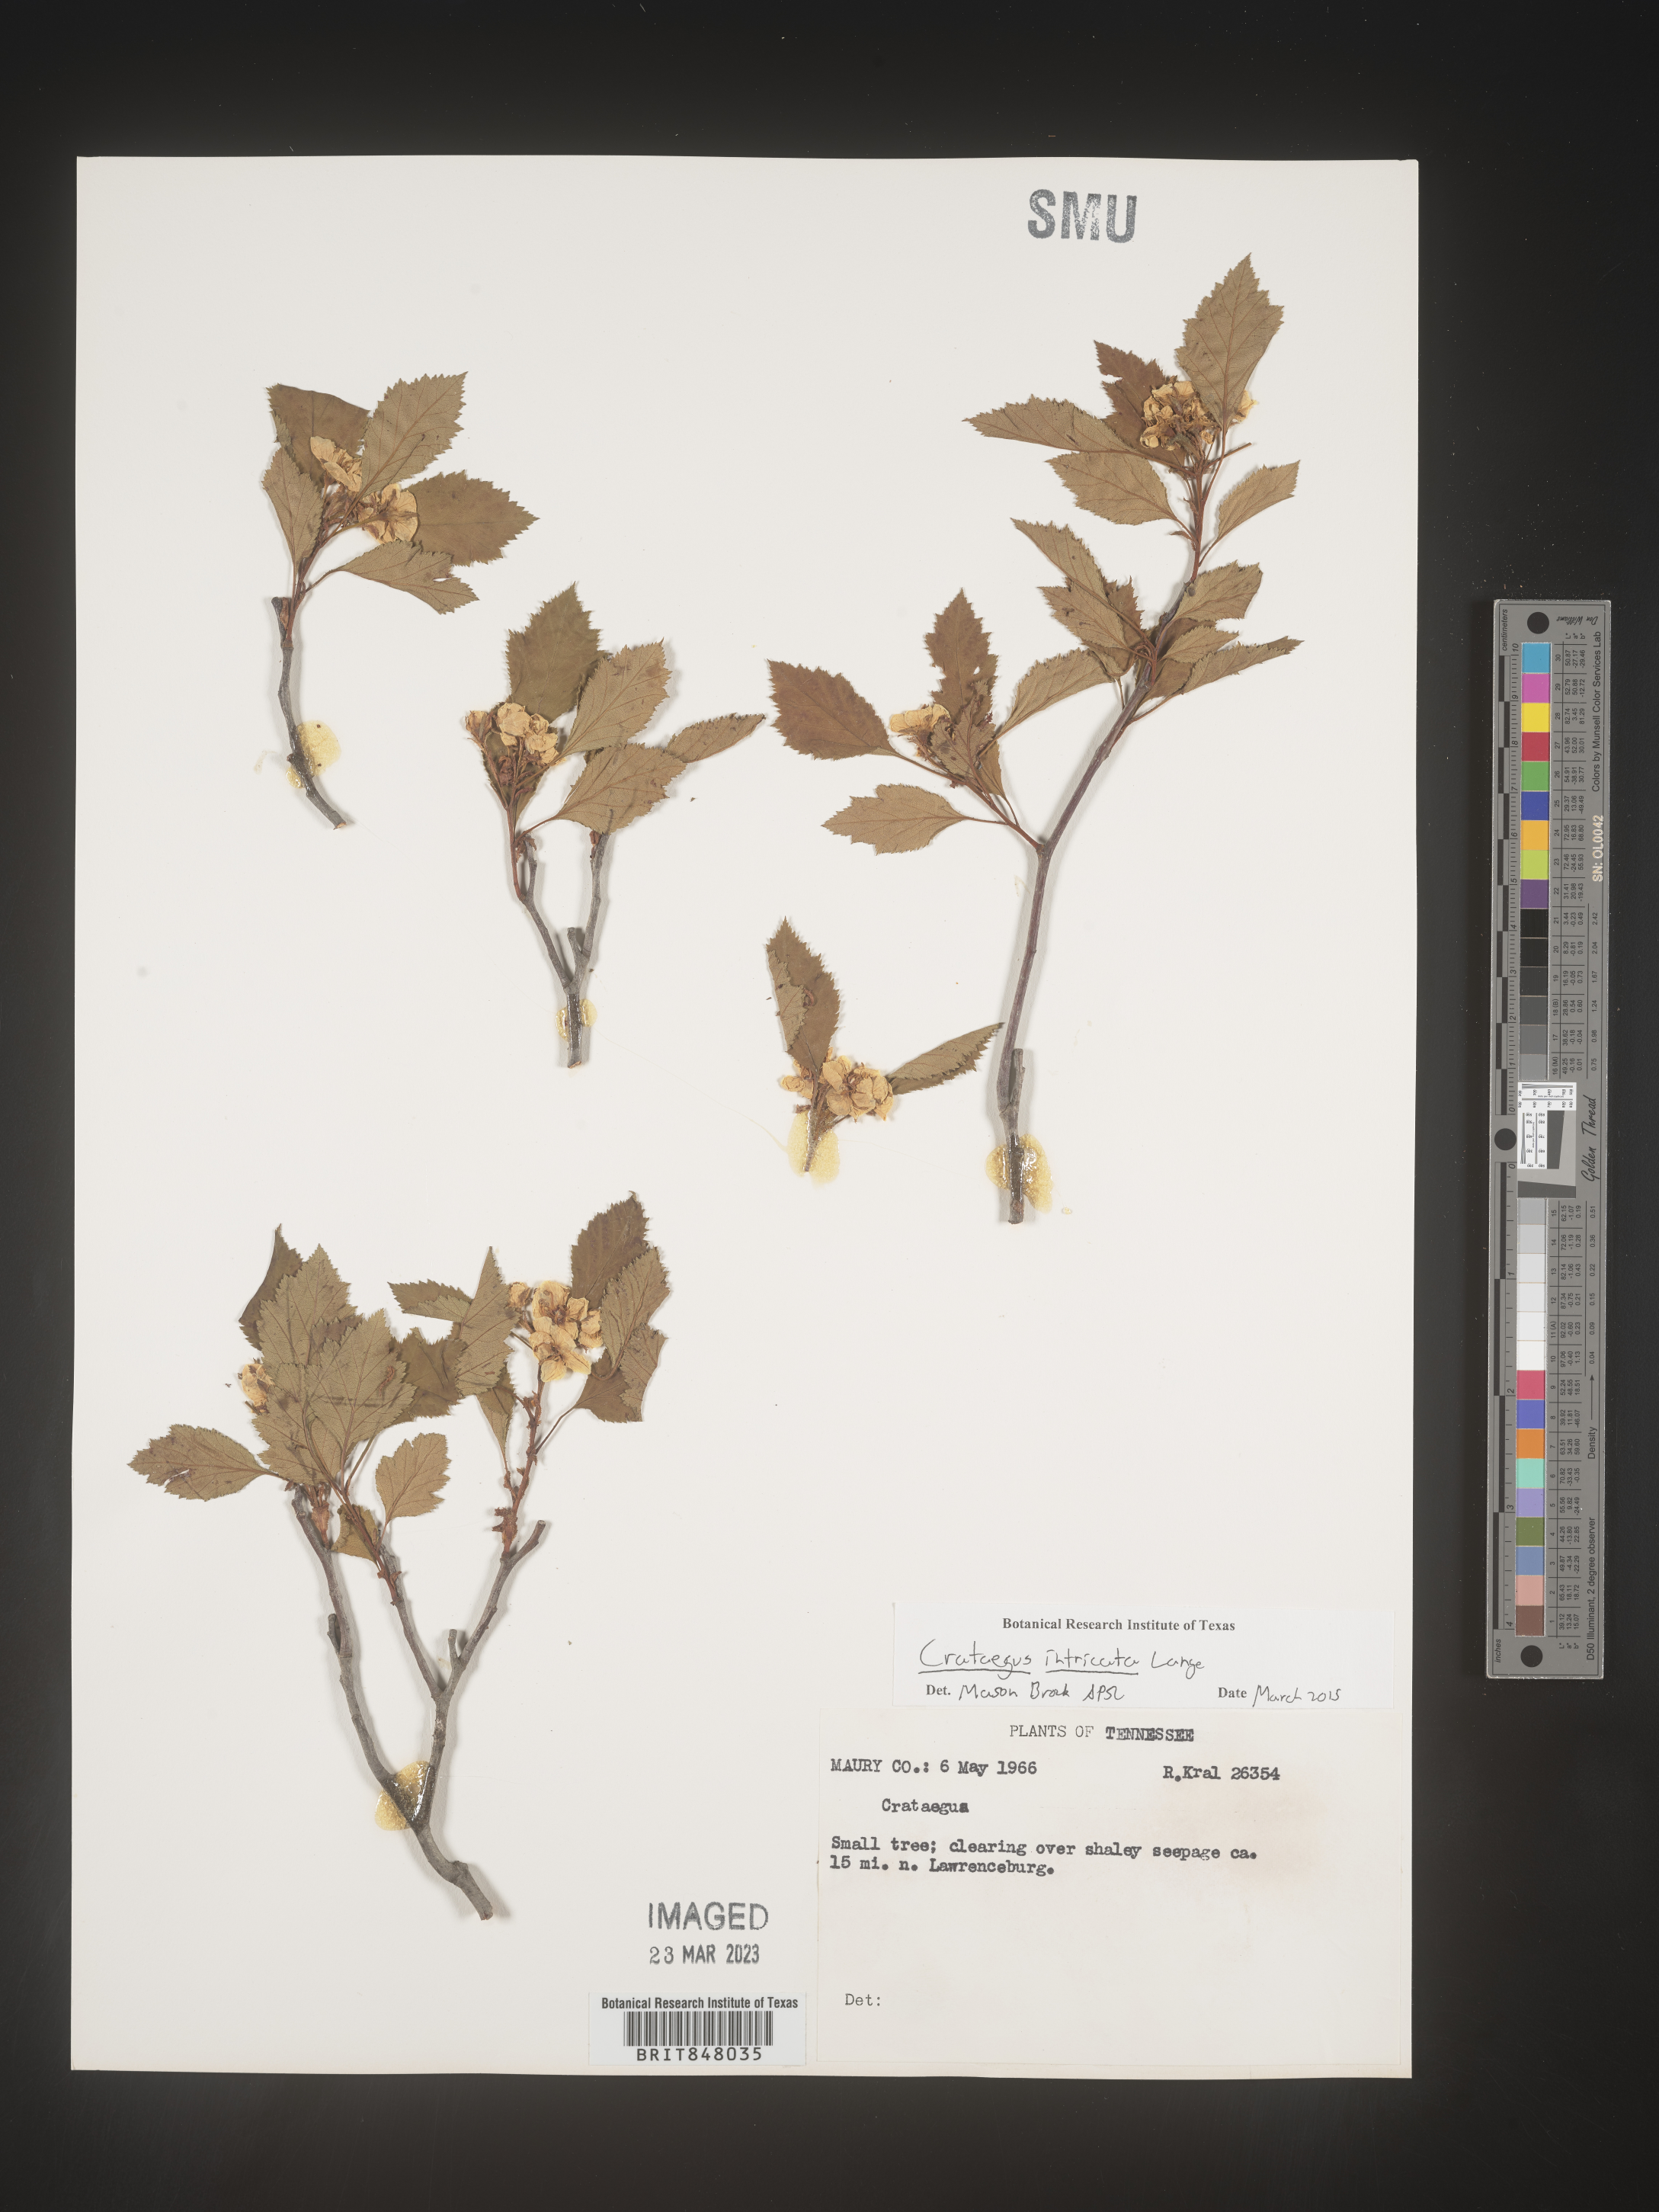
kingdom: Plantae
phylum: Tracheophyta
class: Magnoliopsida
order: Rosales
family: Rosaceae
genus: Crataegus
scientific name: Crataegus
